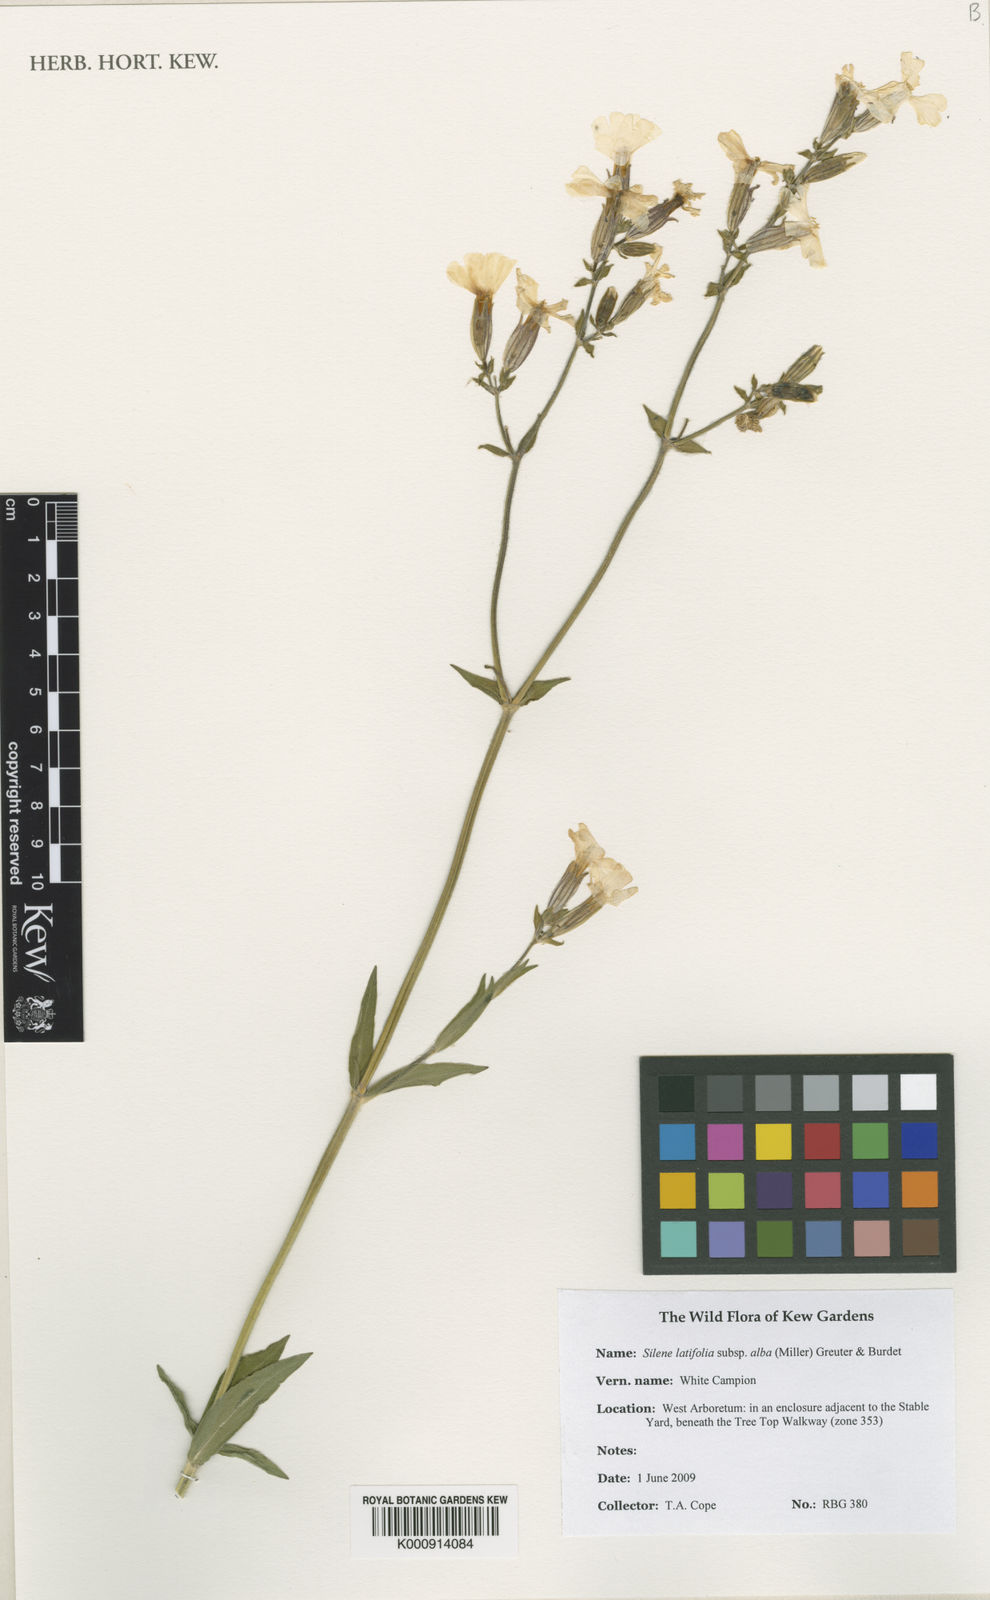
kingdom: Plantae
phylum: Tracheophyta
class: Magnoliopsida
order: Caryophyllales
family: Caryophyllaceae
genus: Silene
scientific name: Silene latifolia
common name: White campion
